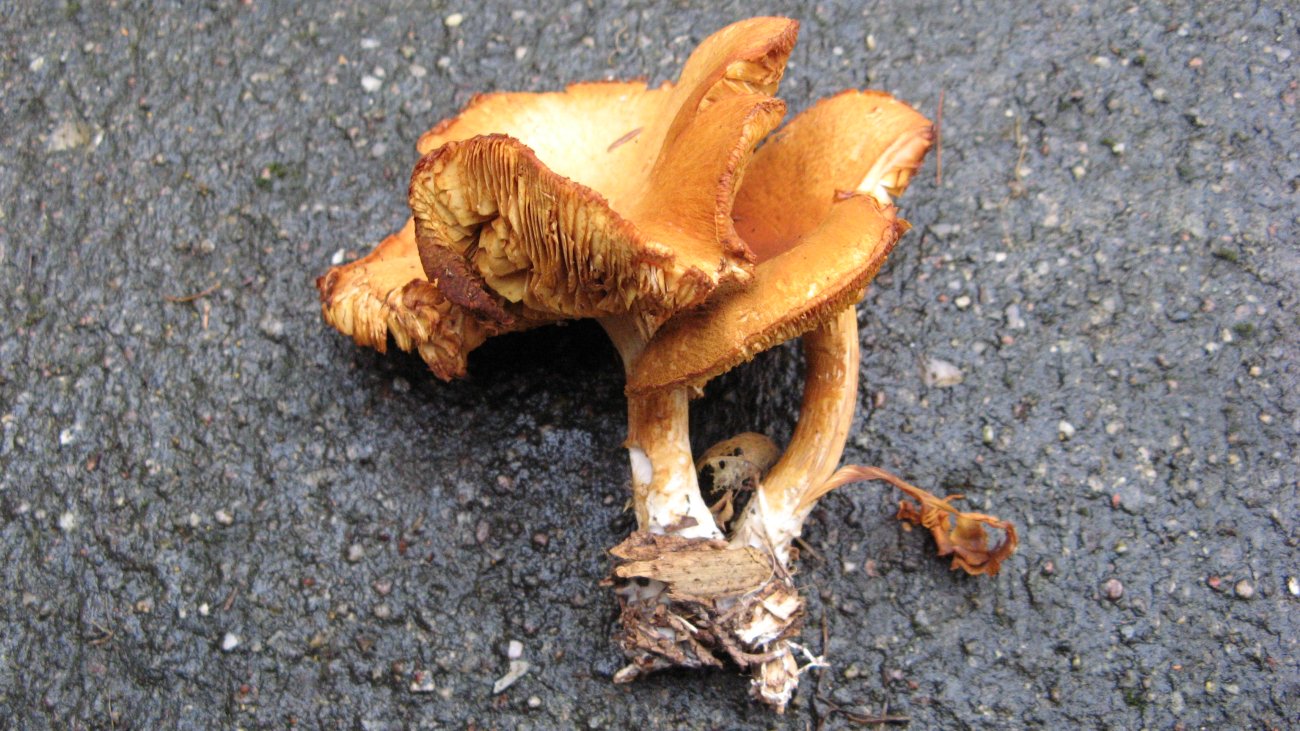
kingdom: Fungi
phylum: Basidiomycota
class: Agaricomycetes
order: Agaricales
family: Hymenogastraceae
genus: Gymnopilus
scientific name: Gymnopilus penetrans
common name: plettet flammehat
